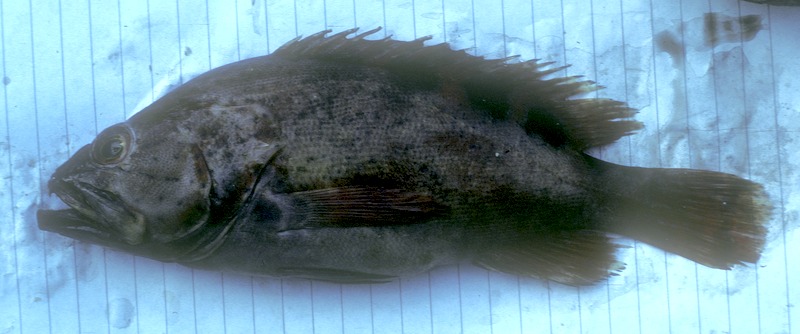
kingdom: Animalia
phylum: Chordata
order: Perciformes
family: Serranidae
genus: Cephalopholis
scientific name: Cephalopholis sexmaculata
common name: Sixblotch hind
